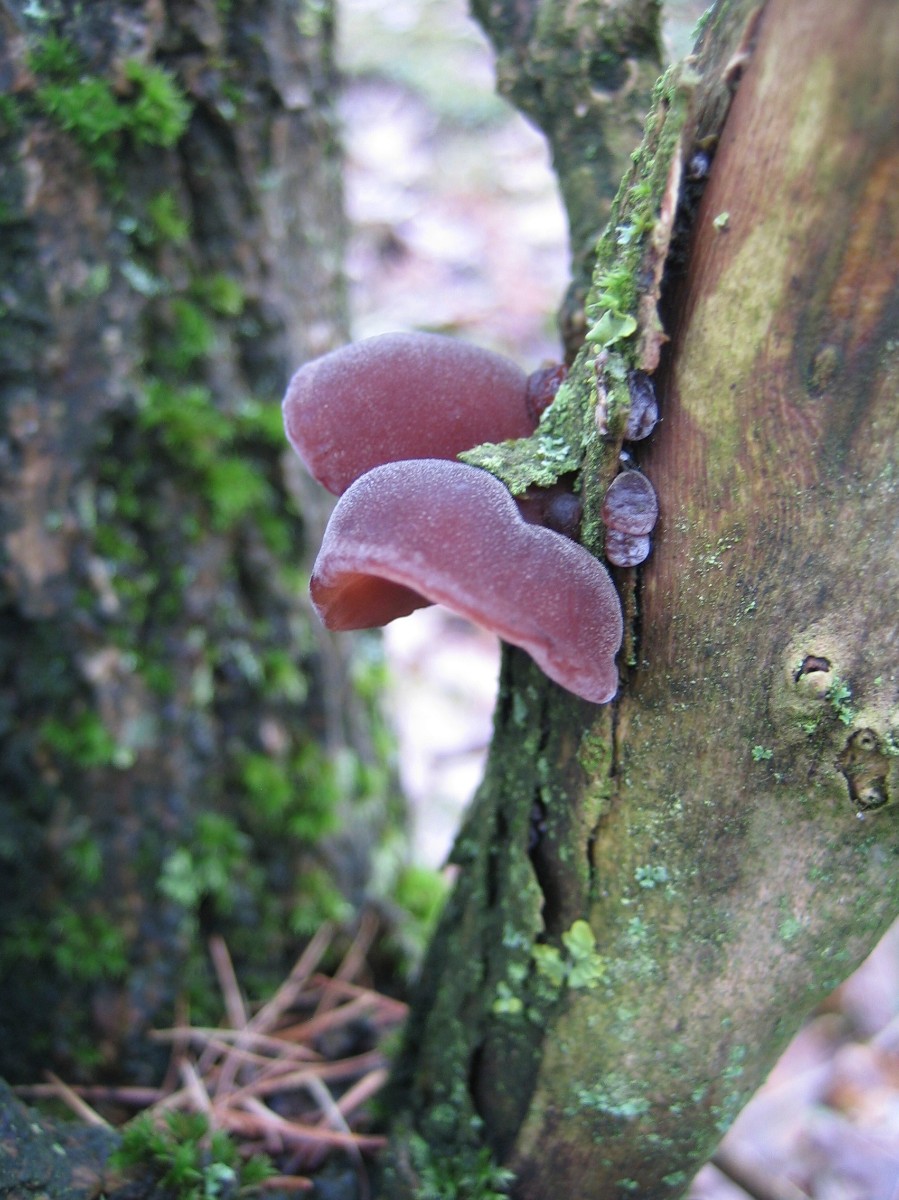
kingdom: Fungi
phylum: Basidiomycota
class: Agaricomycetes
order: Auriculariales
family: Auriculariaceae
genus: Auricularia
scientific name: Auricularia auricula-judae
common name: almindelig judasøre
